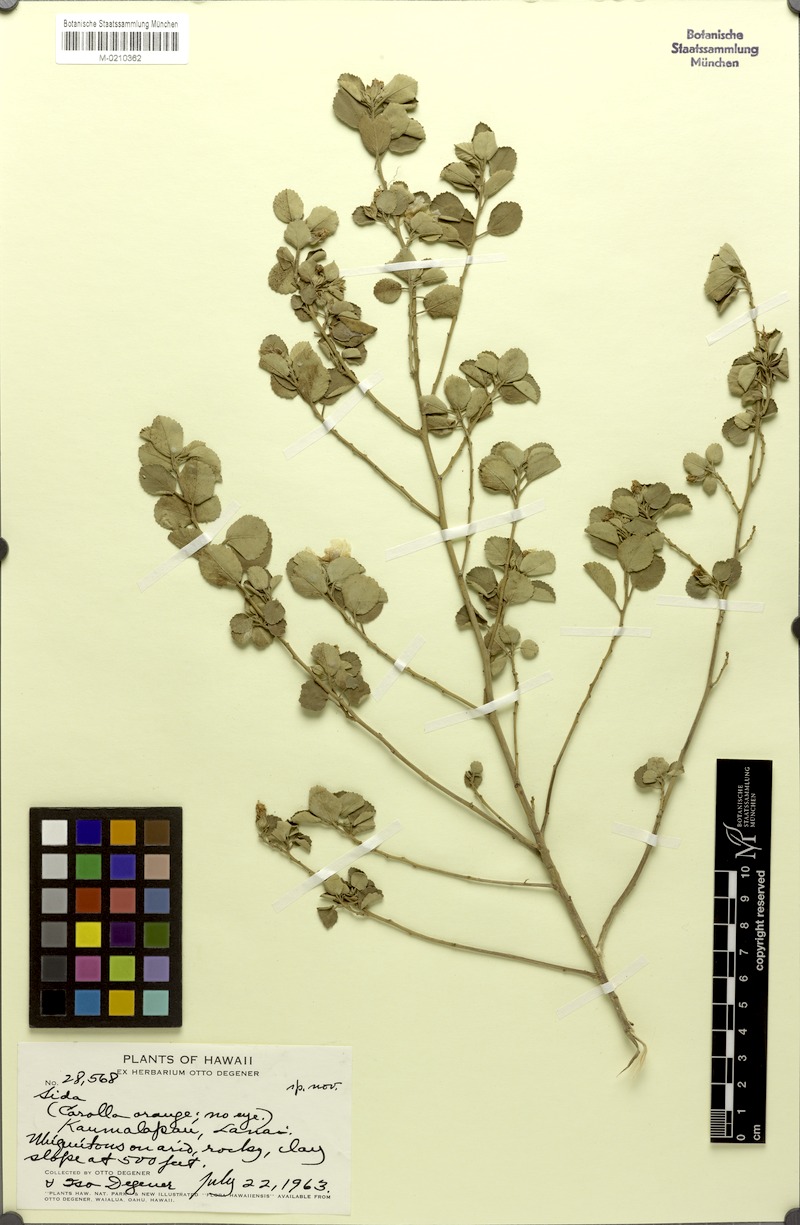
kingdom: Plantae
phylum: Tracheophyta
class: Magnoliopsida
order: Malvales
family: Malvaceae
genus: Sida
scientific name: Sida
